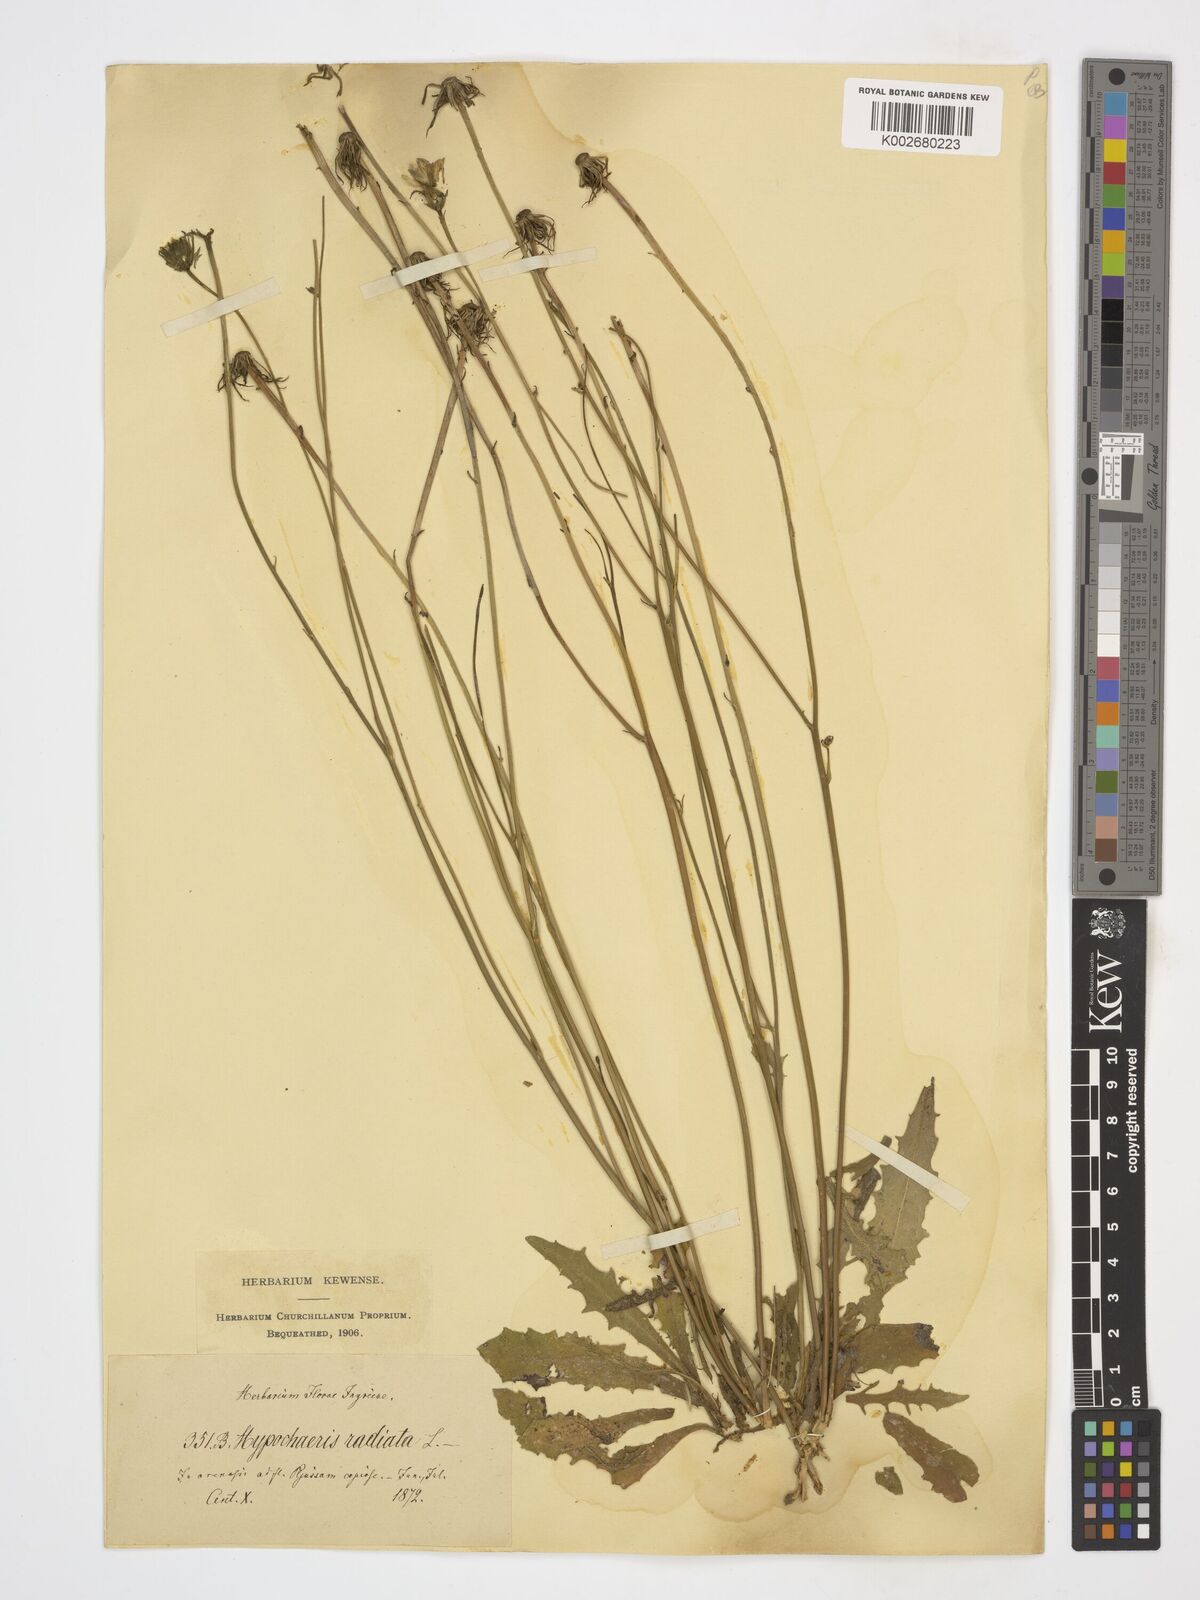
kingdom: Plantae
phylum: Tracheophyta
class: Magnoliopsida
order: Asterales
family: Asteraceae
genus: Hypochaeris
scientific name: Hypochaeris radicata
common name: Flatweed
